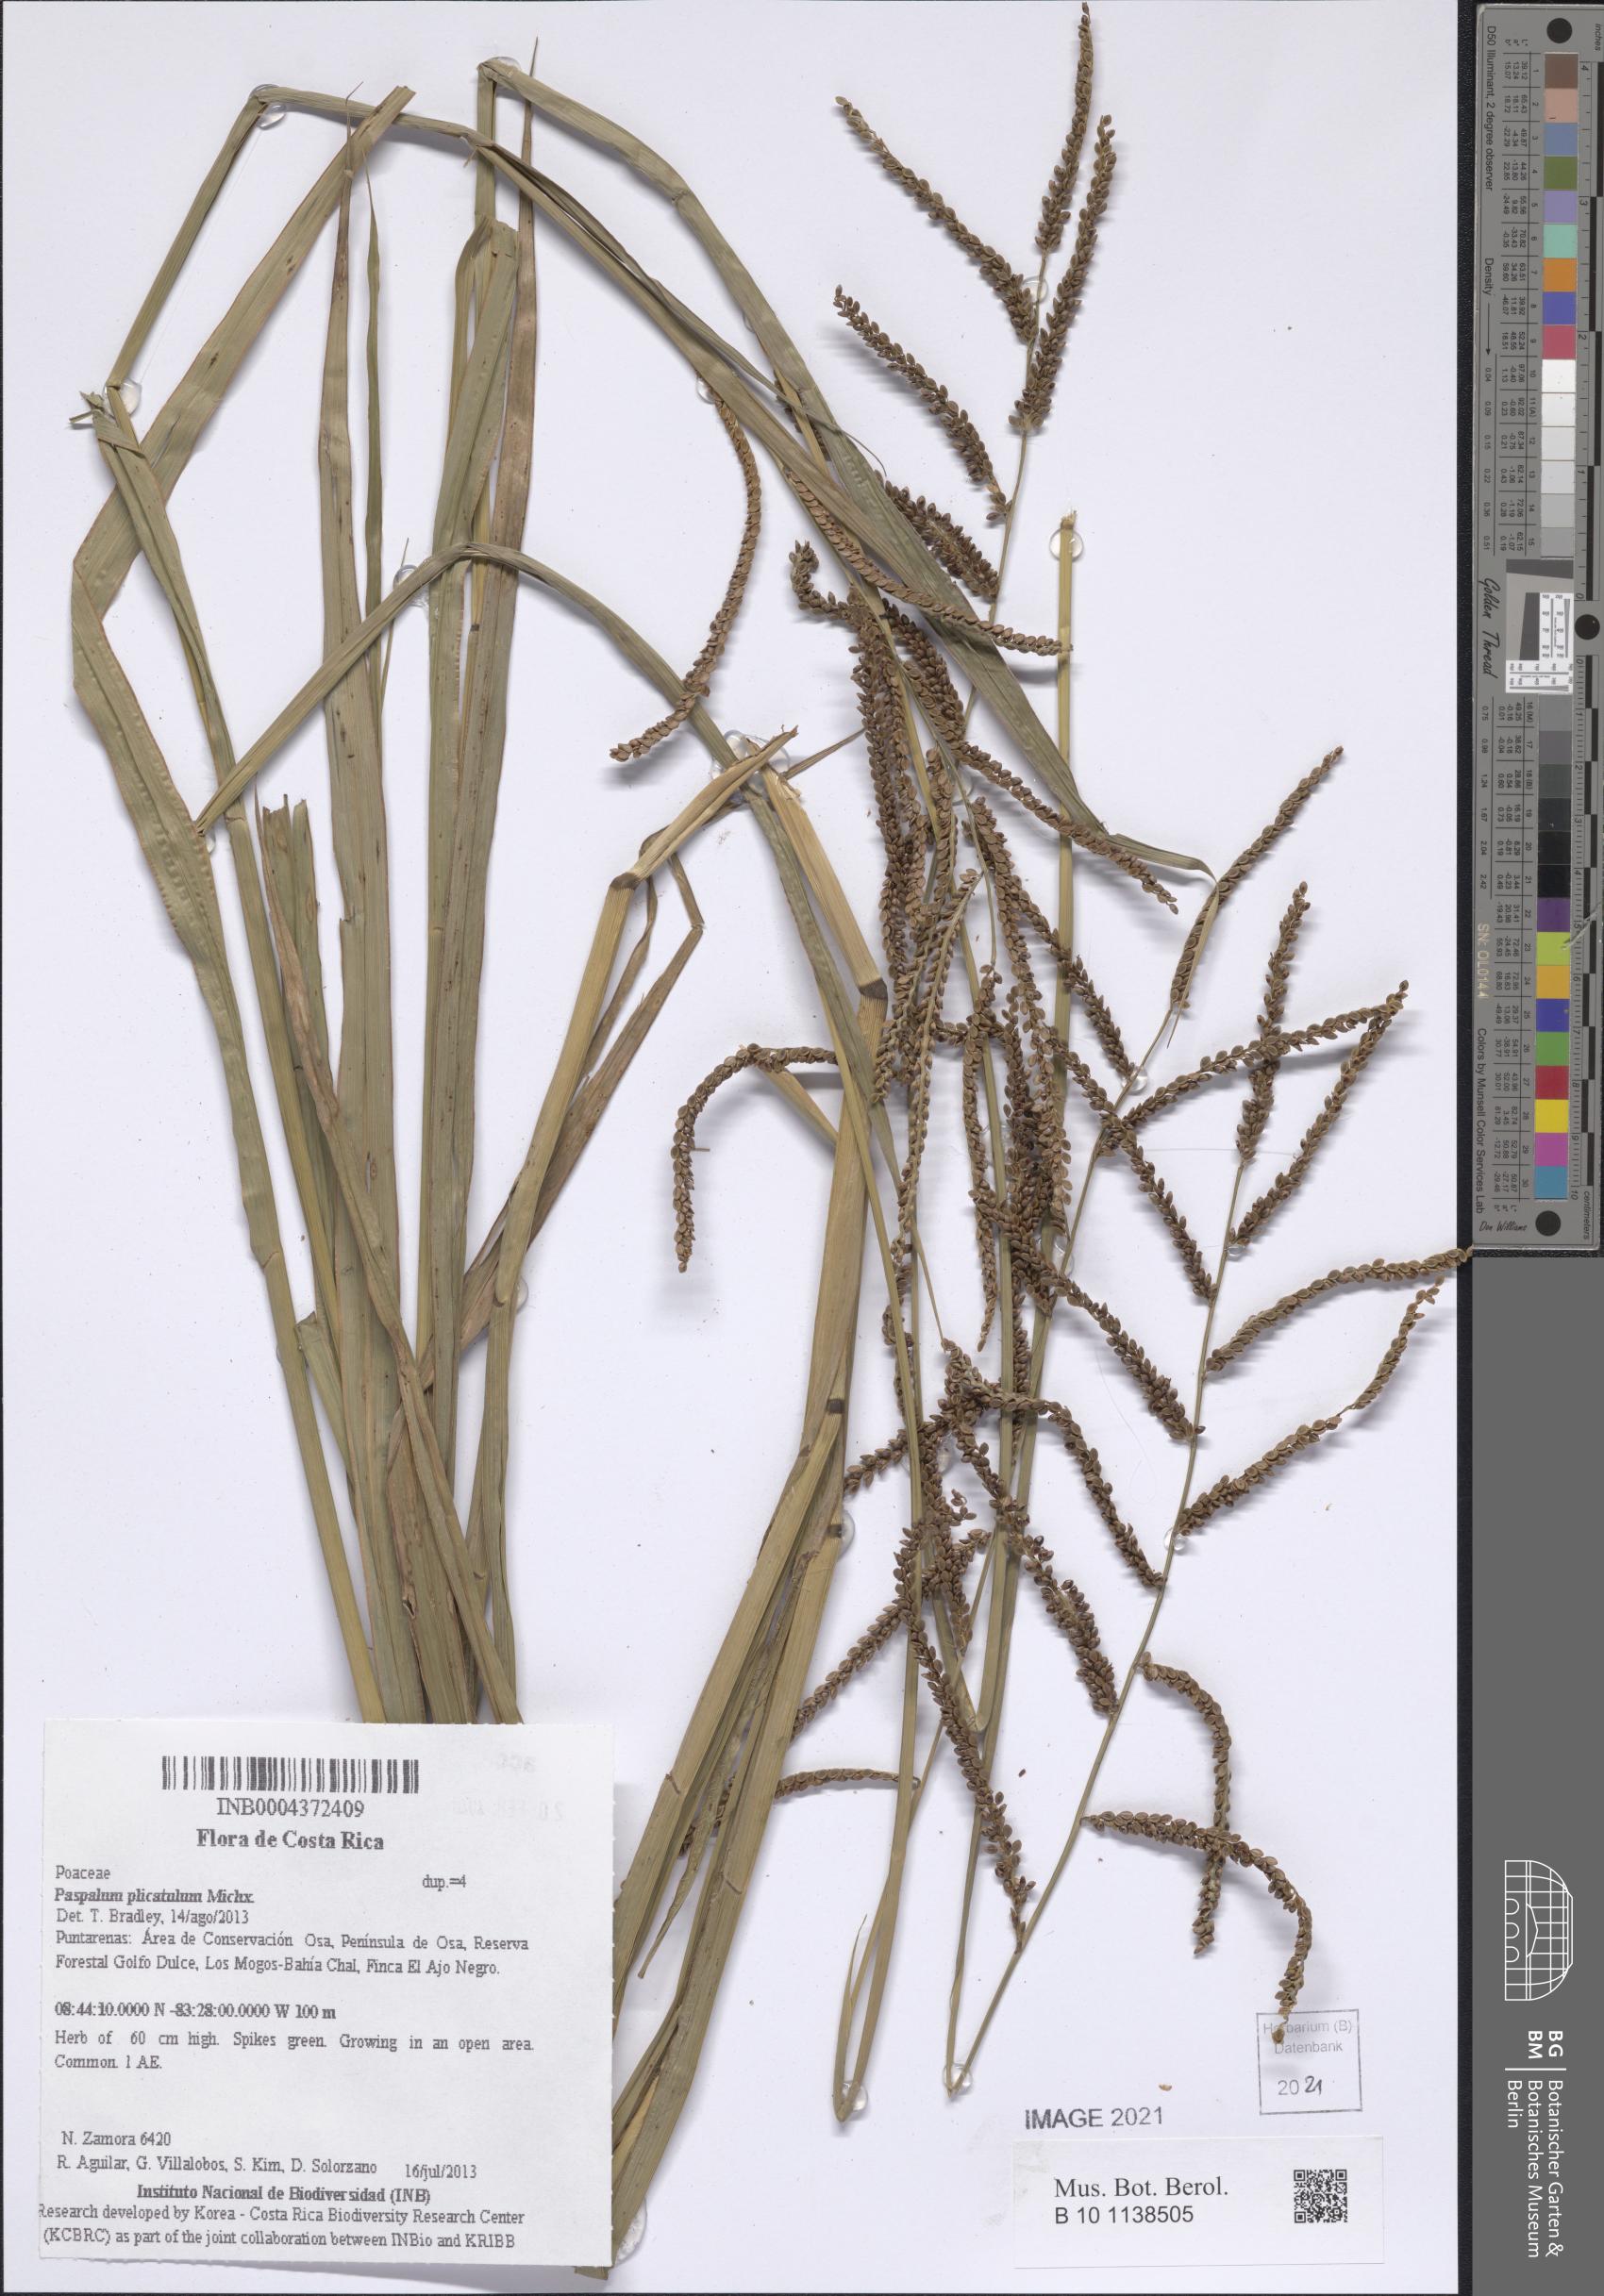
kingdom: Plantae
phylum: Tracheophyta
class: Liliopsida
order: Poales
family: Poaceae
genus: Paspalum
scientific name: Paspalum plicatulum
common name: Top paspalum
